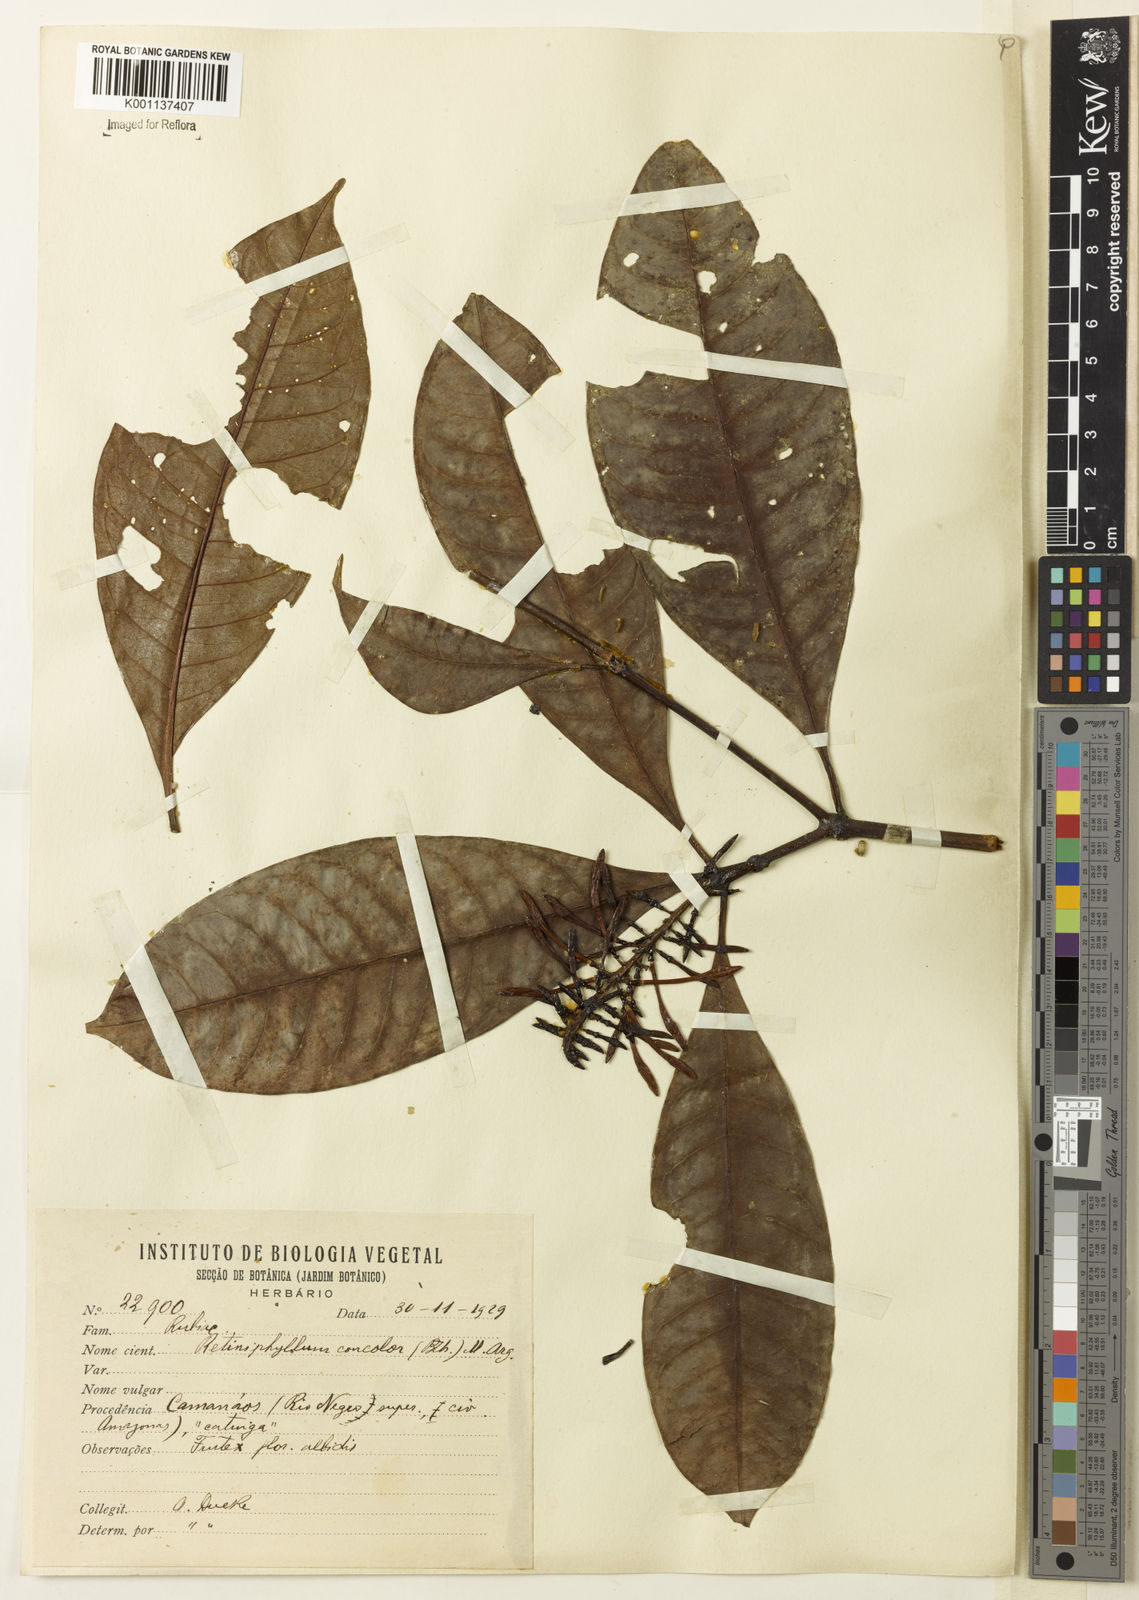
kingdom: Plantae
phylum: Tracheophyta
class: Magnoliopsida
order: Gentianales
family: Rubiaceae
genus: Retiniphyllum
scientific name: Retiniphyllum
